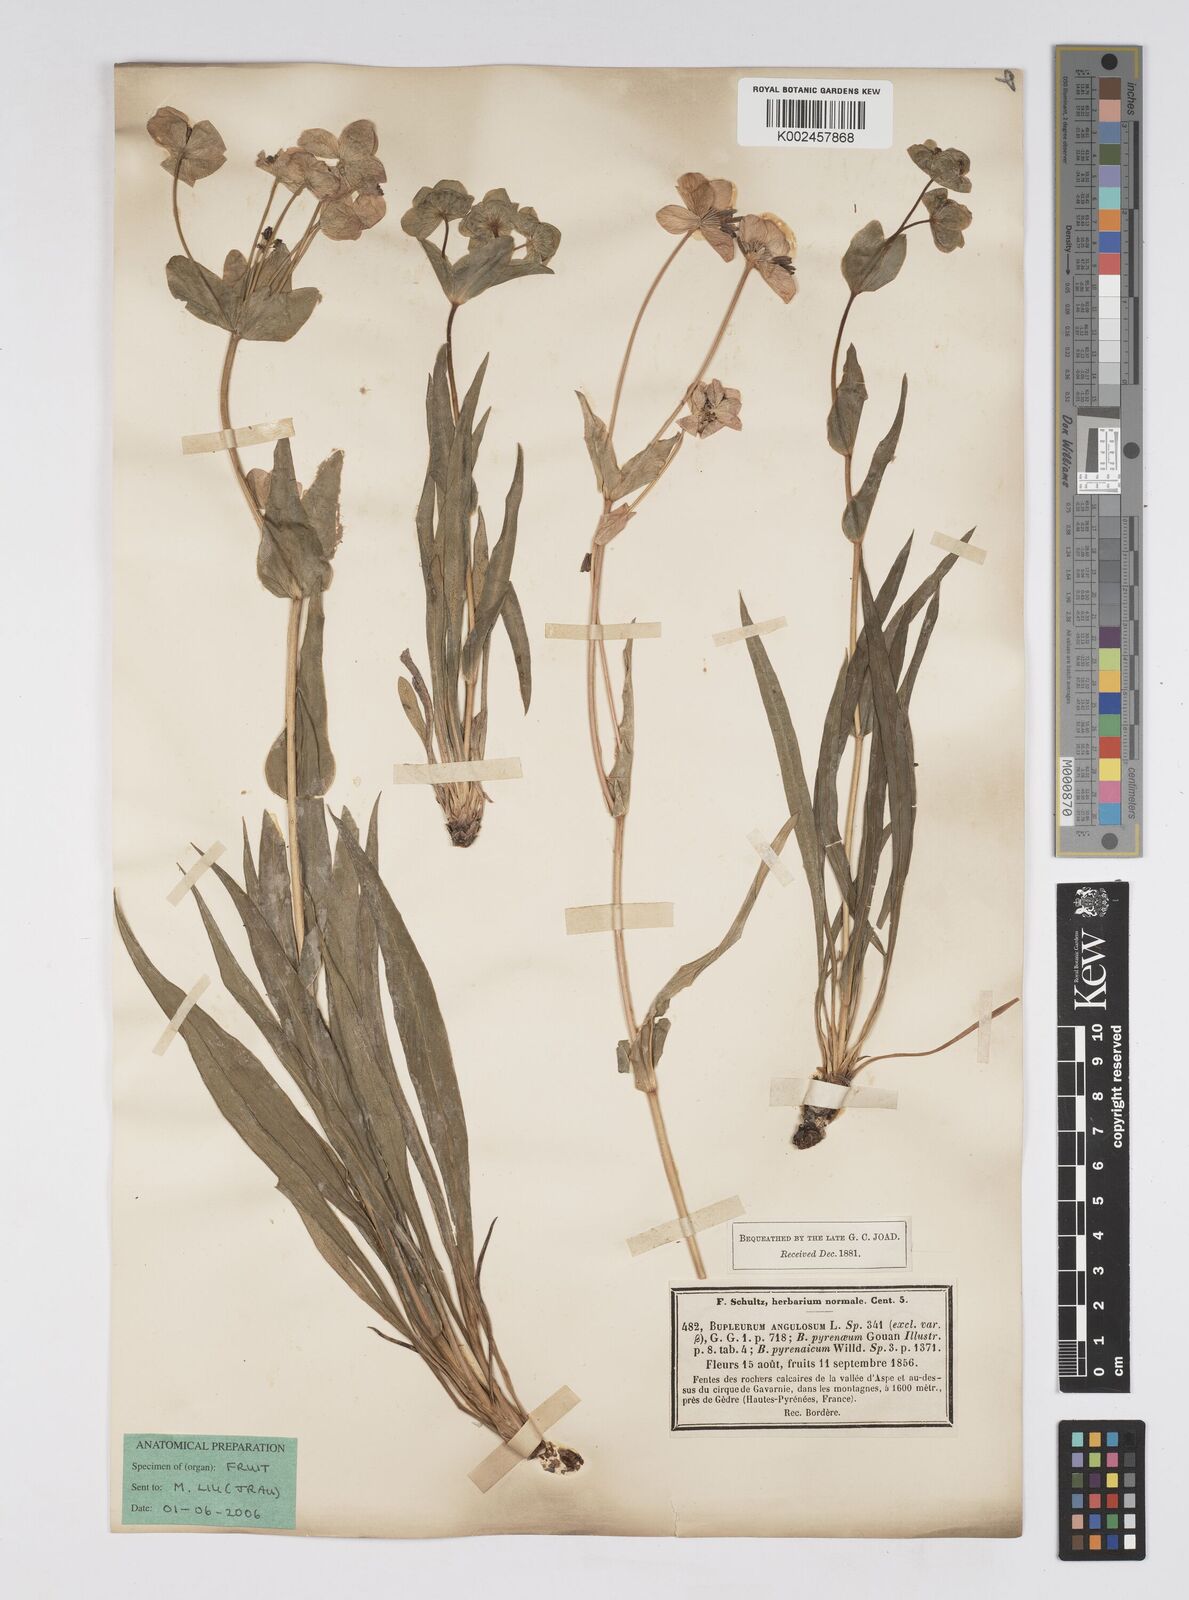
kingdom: Plantae
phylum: Tracheophyta
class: Magnoliopsida
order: Apiales
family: Apiaceae
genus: Bupleurum
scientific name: Bupleurum angulosum
